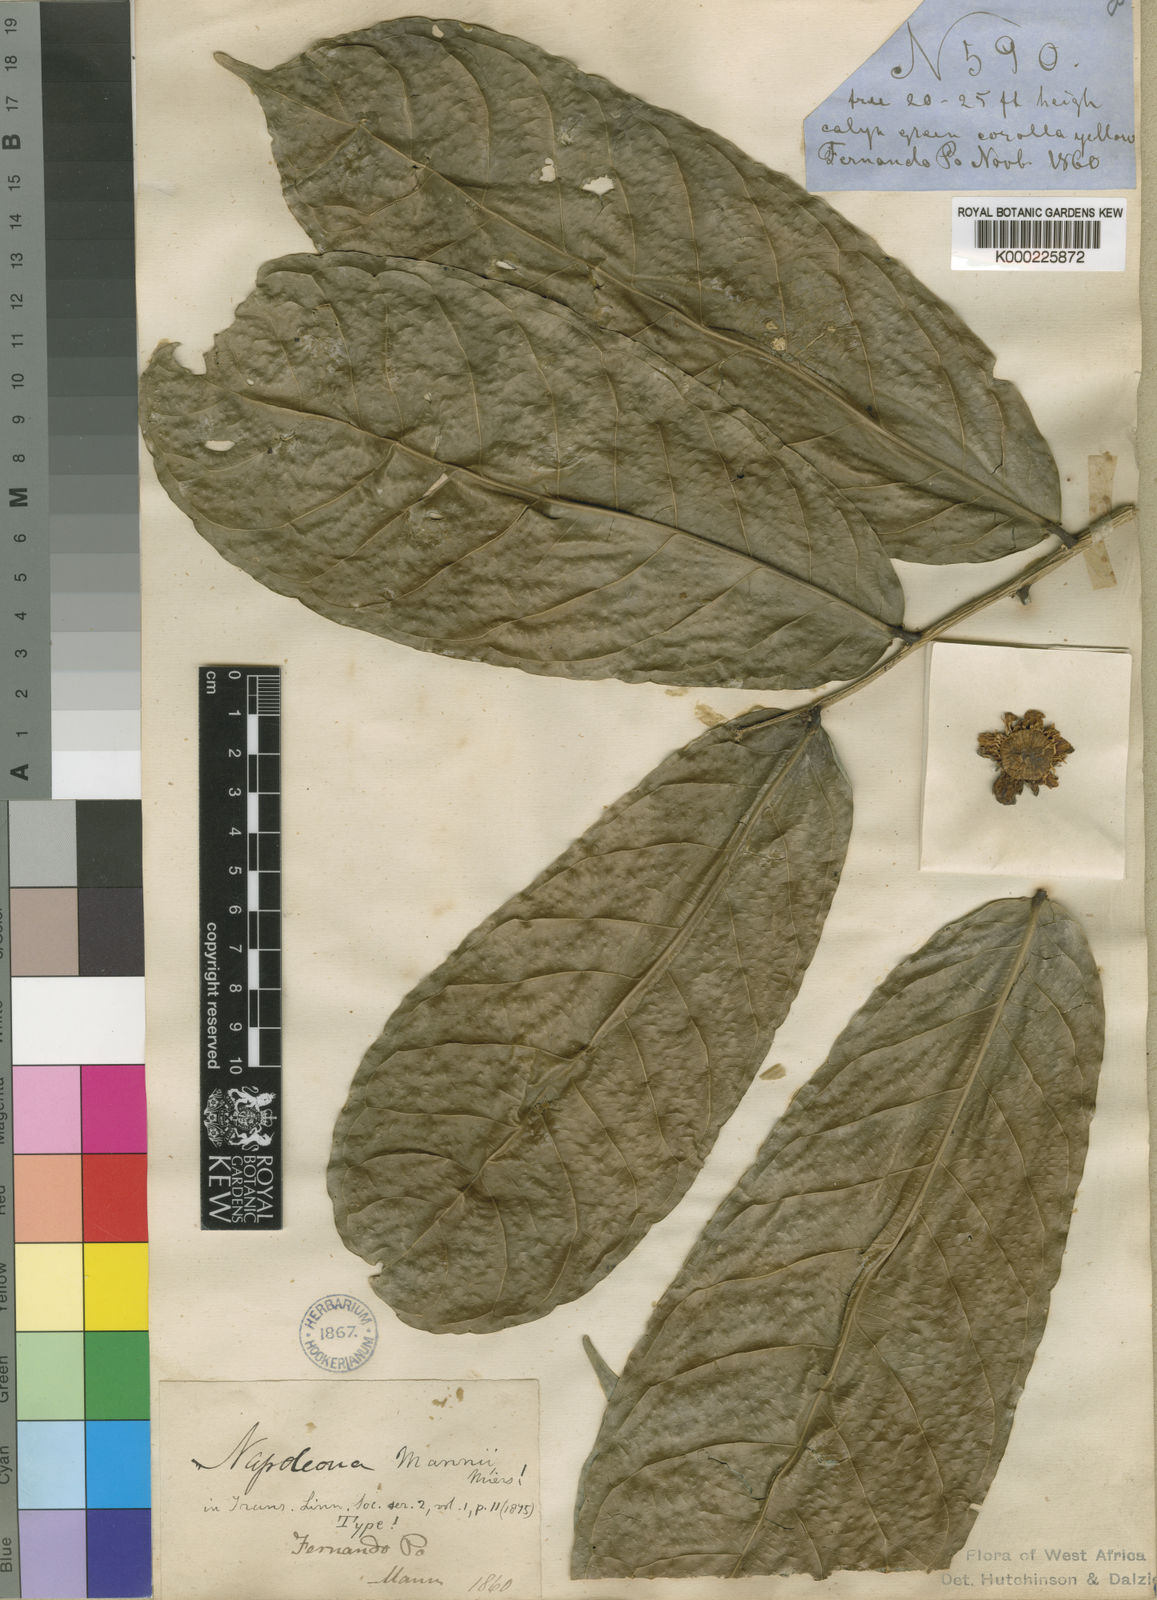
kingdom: Plantae
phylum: Tracheophyta
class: Magnoliopsida
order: Ericales
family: Lecythidaceae
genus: Napoleonaea
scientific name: Napoleonaea mannii
